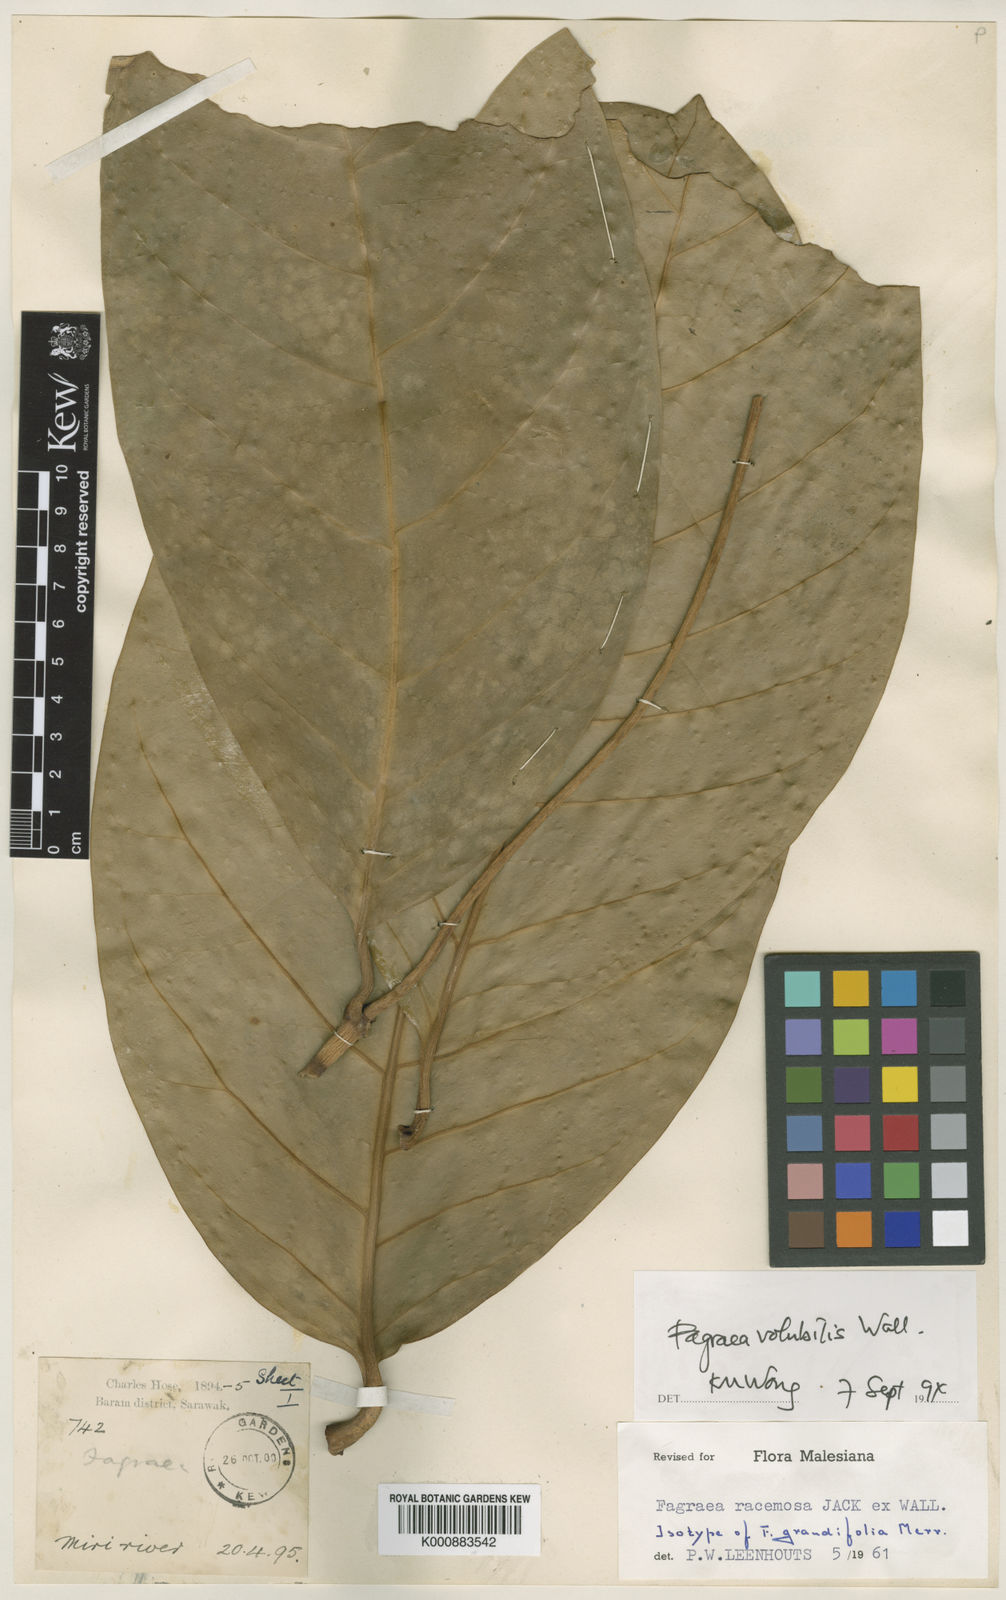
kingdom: Plantae
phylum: Tracheophyta
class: Magnoliopsida
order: Gentianales
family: Gentianaceae
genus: Fagraea
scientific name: Fagraea
